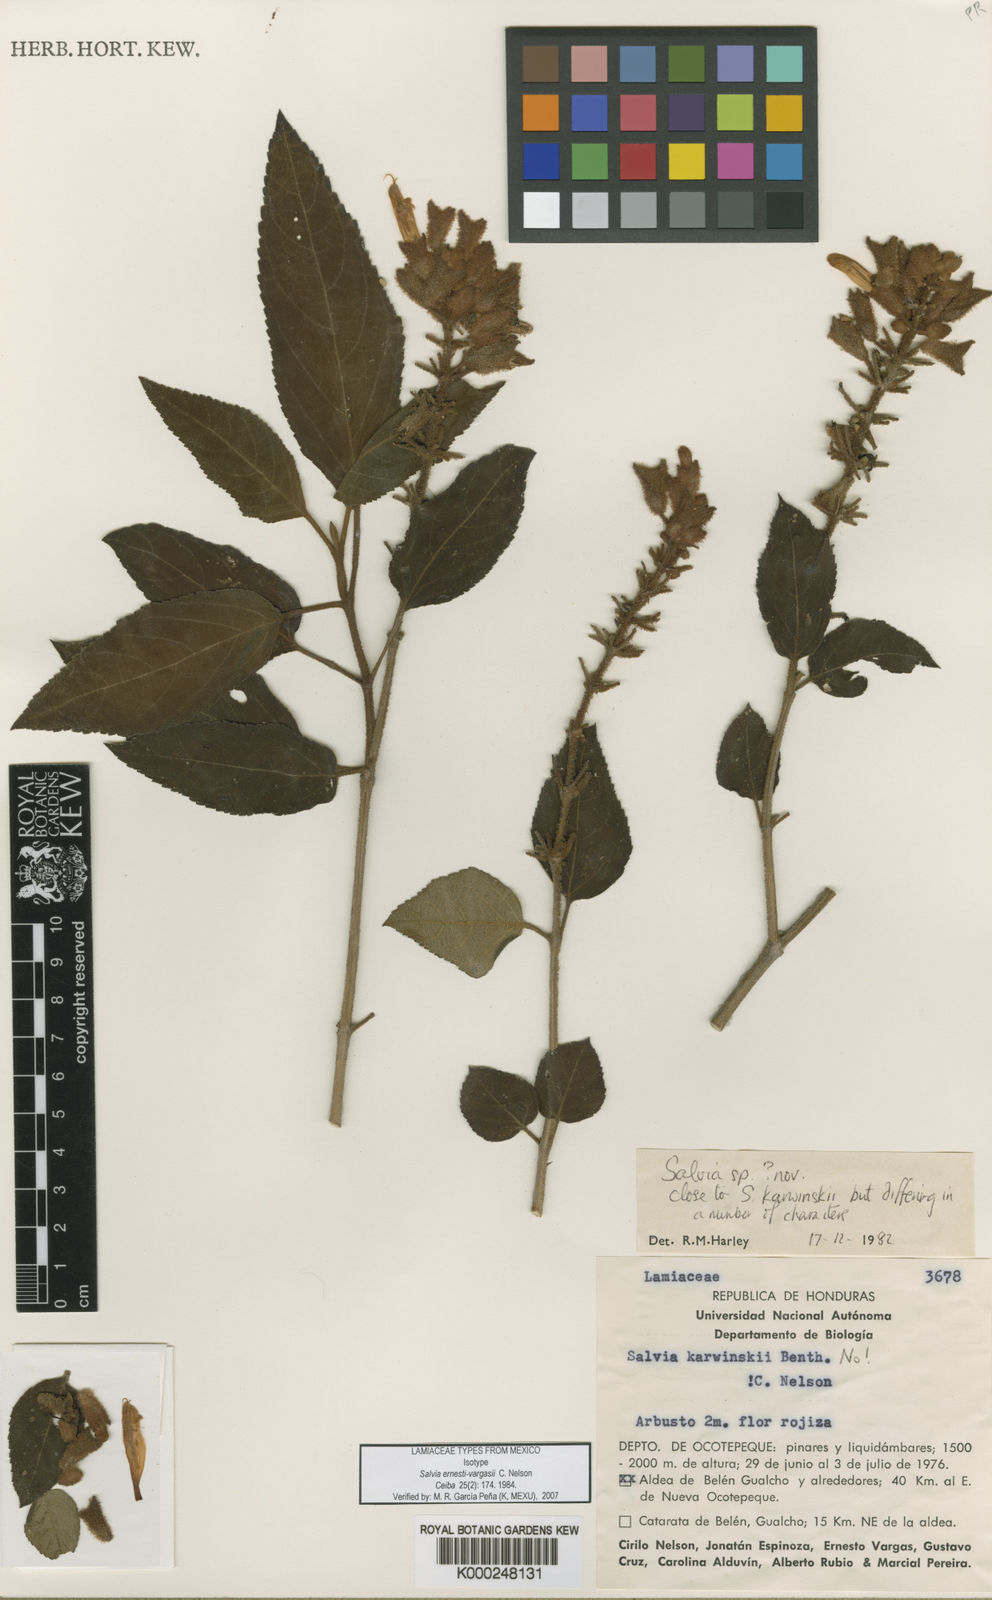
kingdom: Plantae
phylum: Tracheophyta
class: Magnoliopsida
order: Lamiales
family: Lamiaceae
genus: Salvia
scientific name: Salvia ernesti-vargasii
